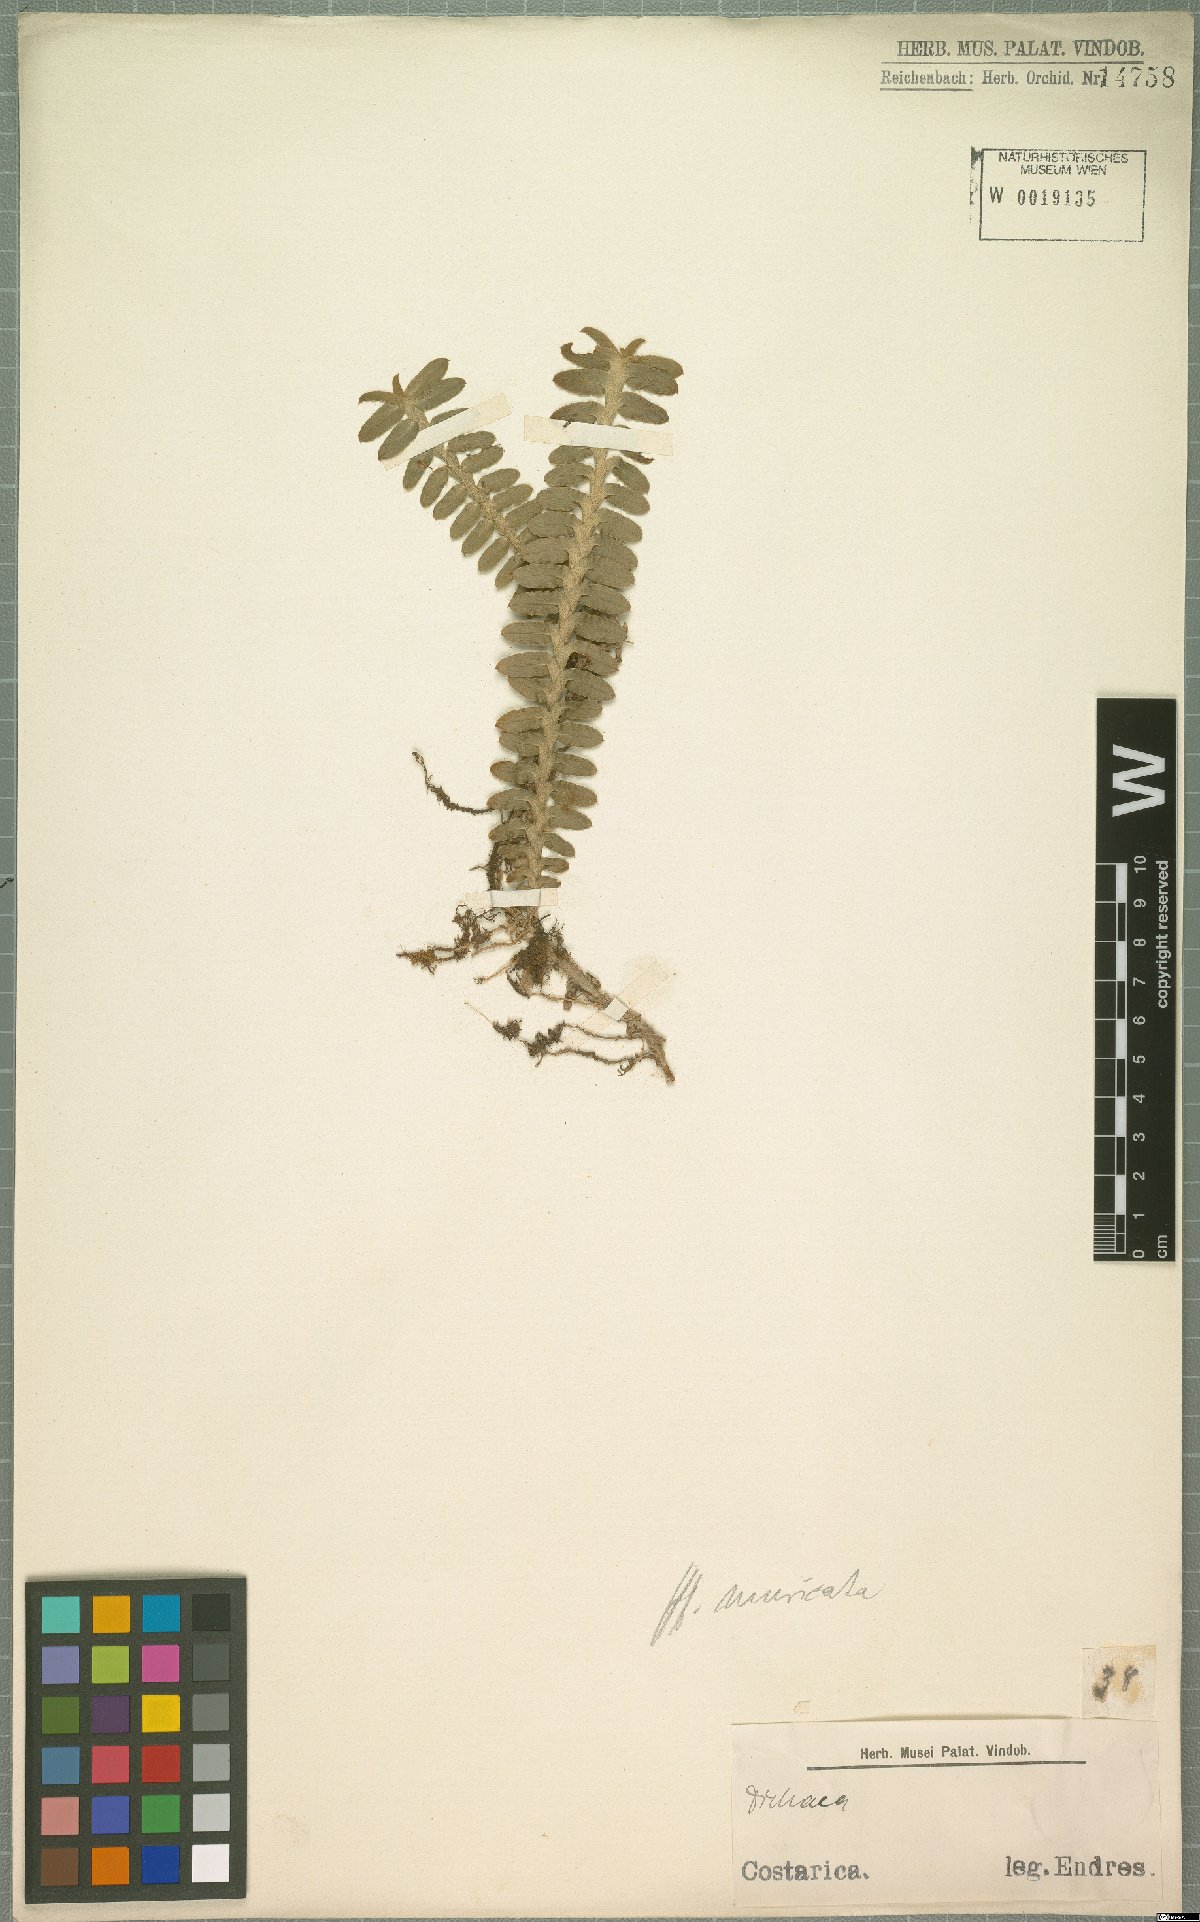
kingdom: Plantae
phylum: Tracheophyta
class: Liliopsida
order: Asparagales
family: Orchidaceae
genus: Dichaea
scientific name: Dichaea morrisii
